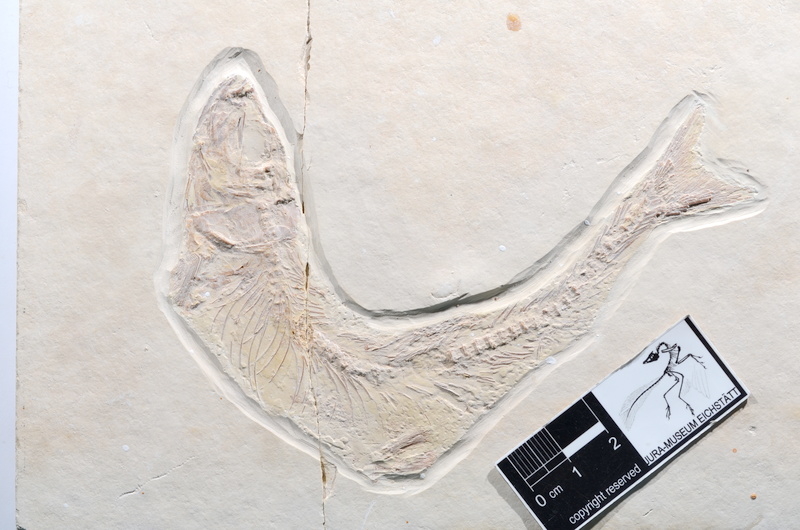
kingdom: Animalia
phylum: Chordata
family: Ascalaboidae
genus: Tharsis
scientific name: Tharsis dubius
